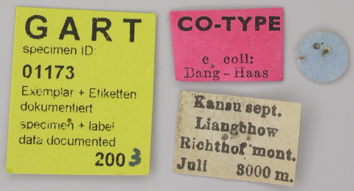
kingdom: Animalia
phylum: Arthropoda
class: Insecta
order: Lepidoptera
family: Papilionidae
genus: Parnassius
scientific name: Parnassius jacquemontii
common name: Keeled apollo
